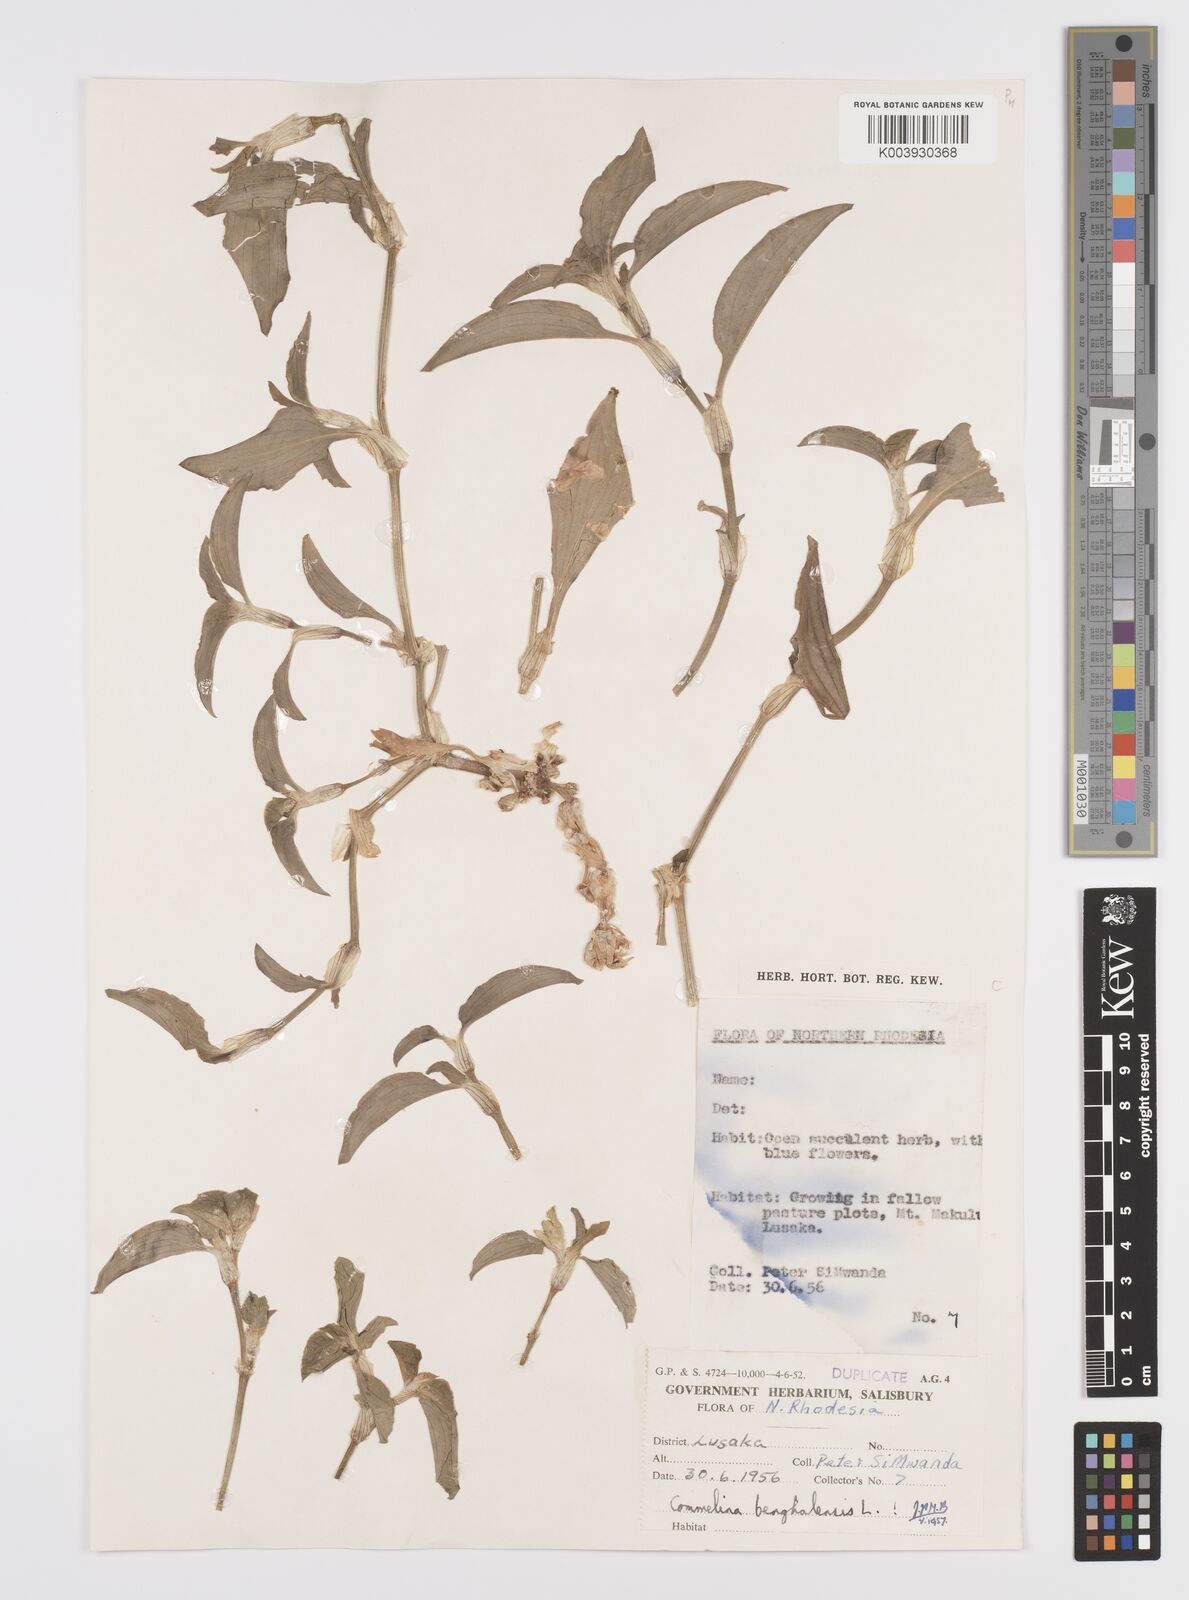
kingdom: Plantae
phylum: Tracheophyta
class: Liliopsida
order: Commelinales
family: Commelinaceae
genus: Commelina
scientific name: Commelina benghalensis
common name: Jio
